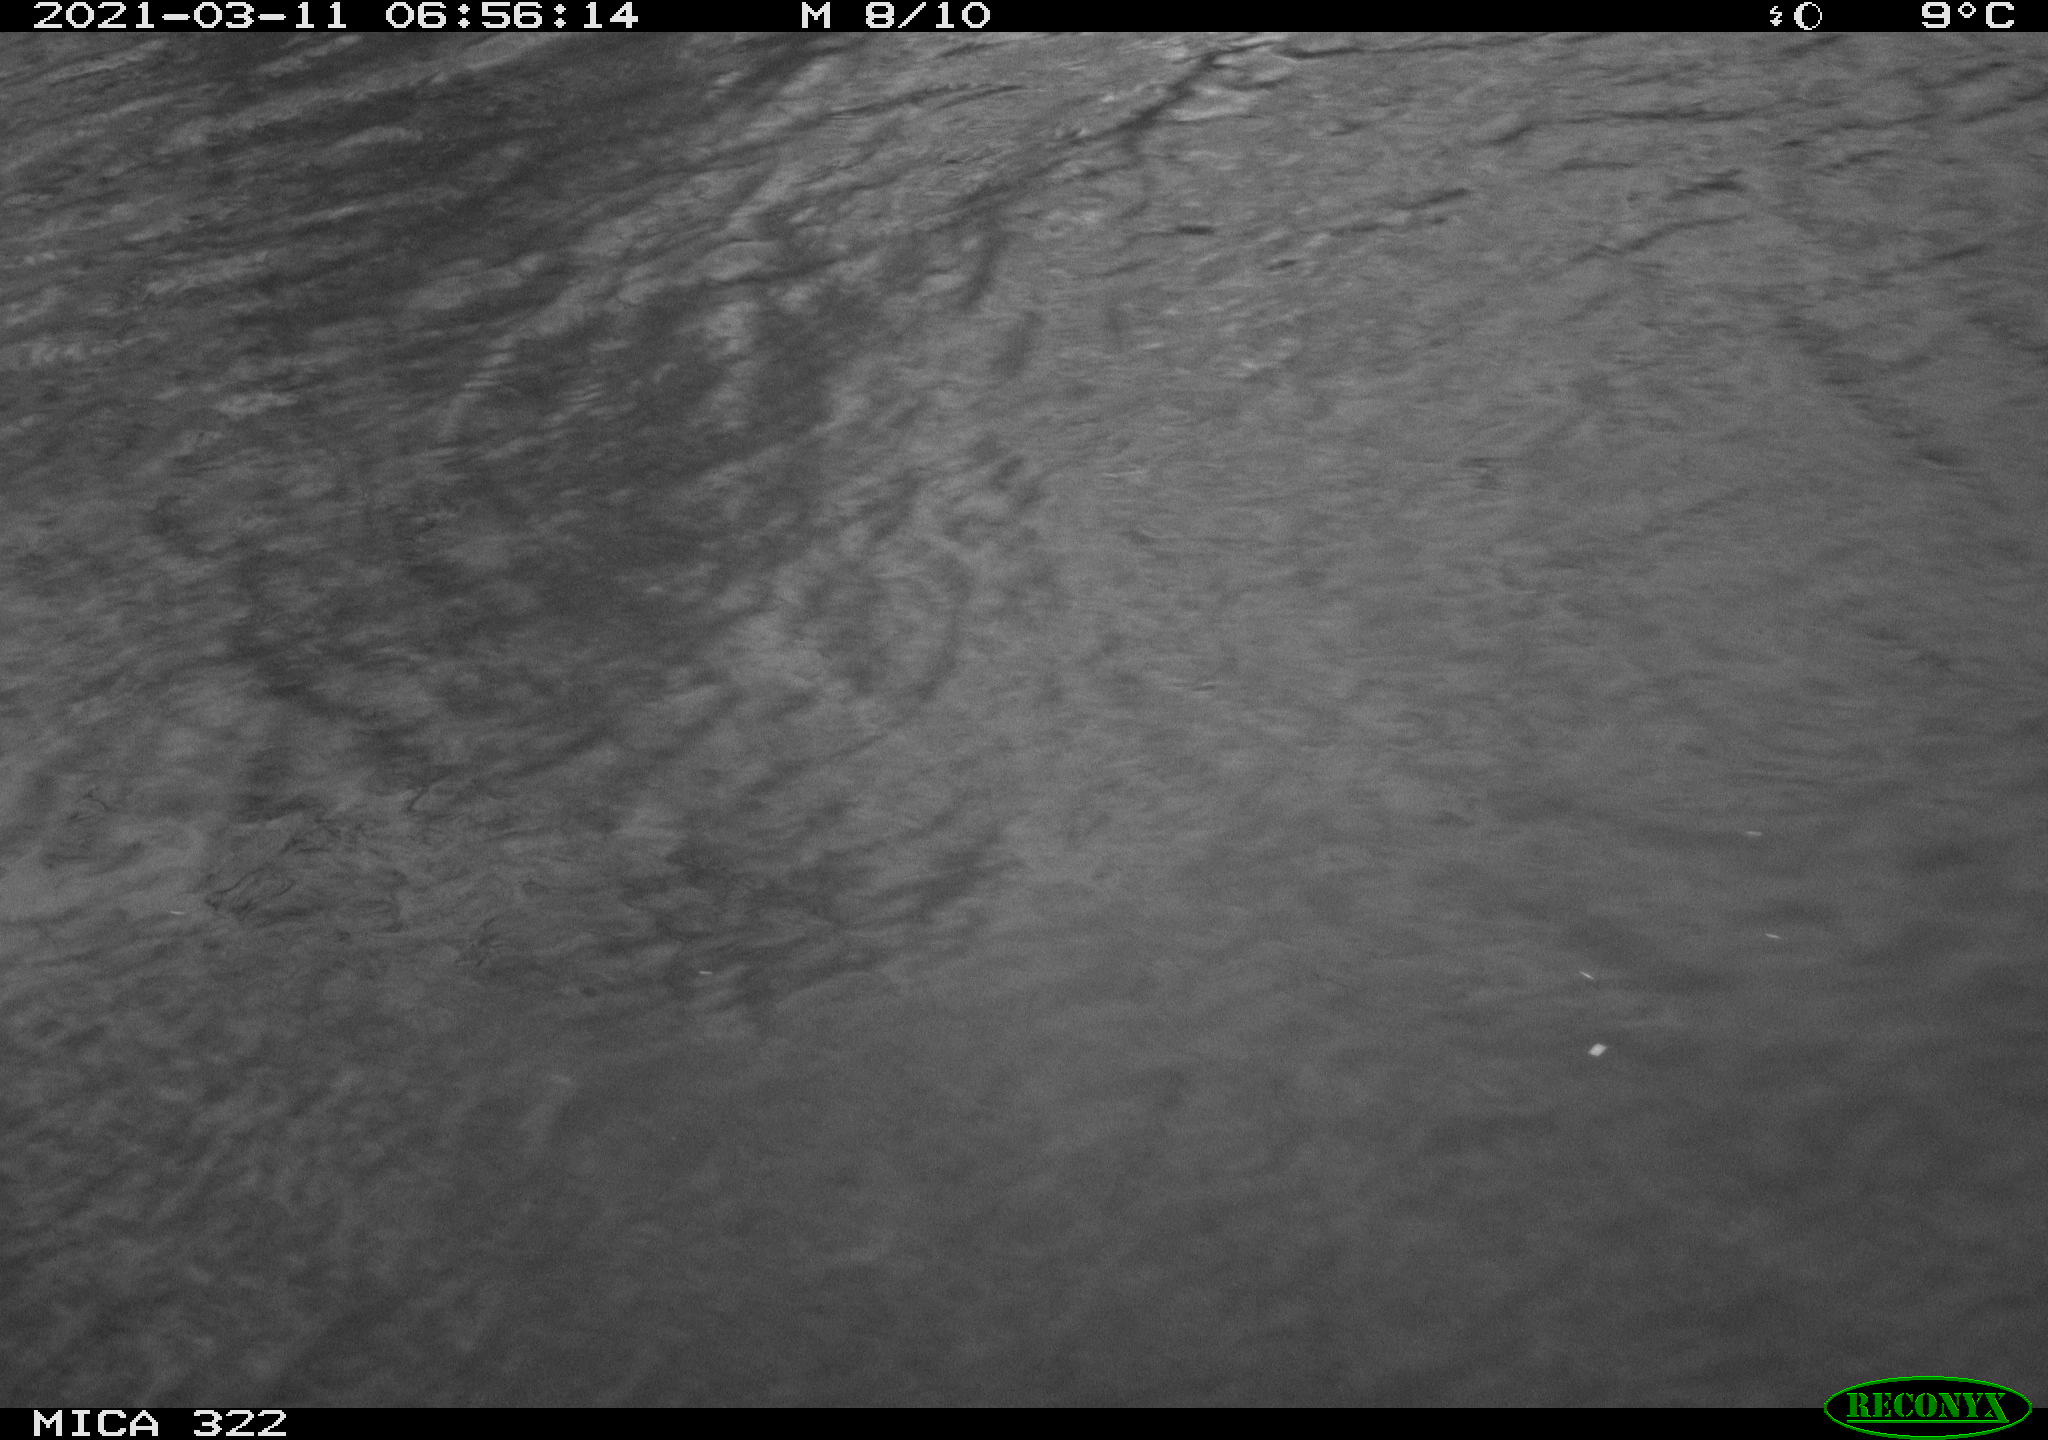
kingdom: Animalia
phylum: Chordata
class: Aves
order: Anseriformes
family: Anatidae
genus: Anas
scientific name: Anas platyrhynchos
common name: Mallard
